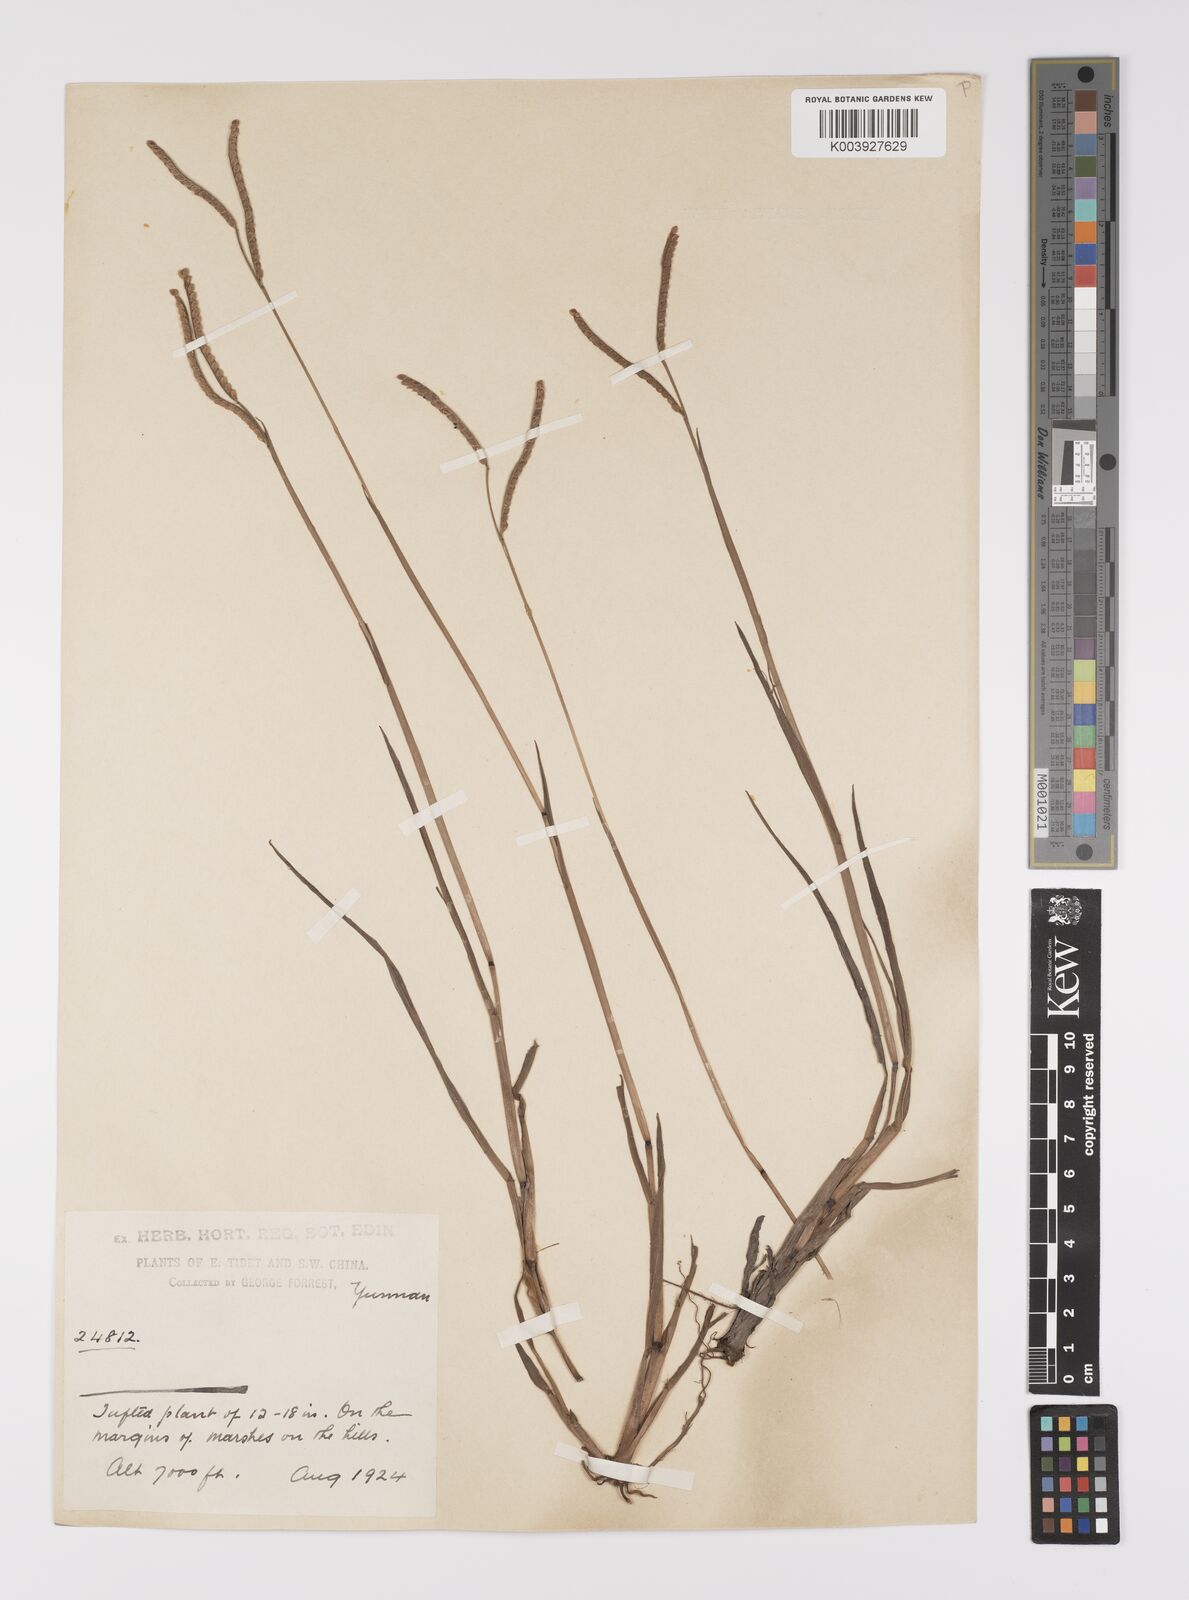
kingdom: Plantae
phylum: Tracheophyta
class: Liliopsida
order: Poales
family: Poaceae
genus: Paspalum
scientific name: Paspalum orbiculare
